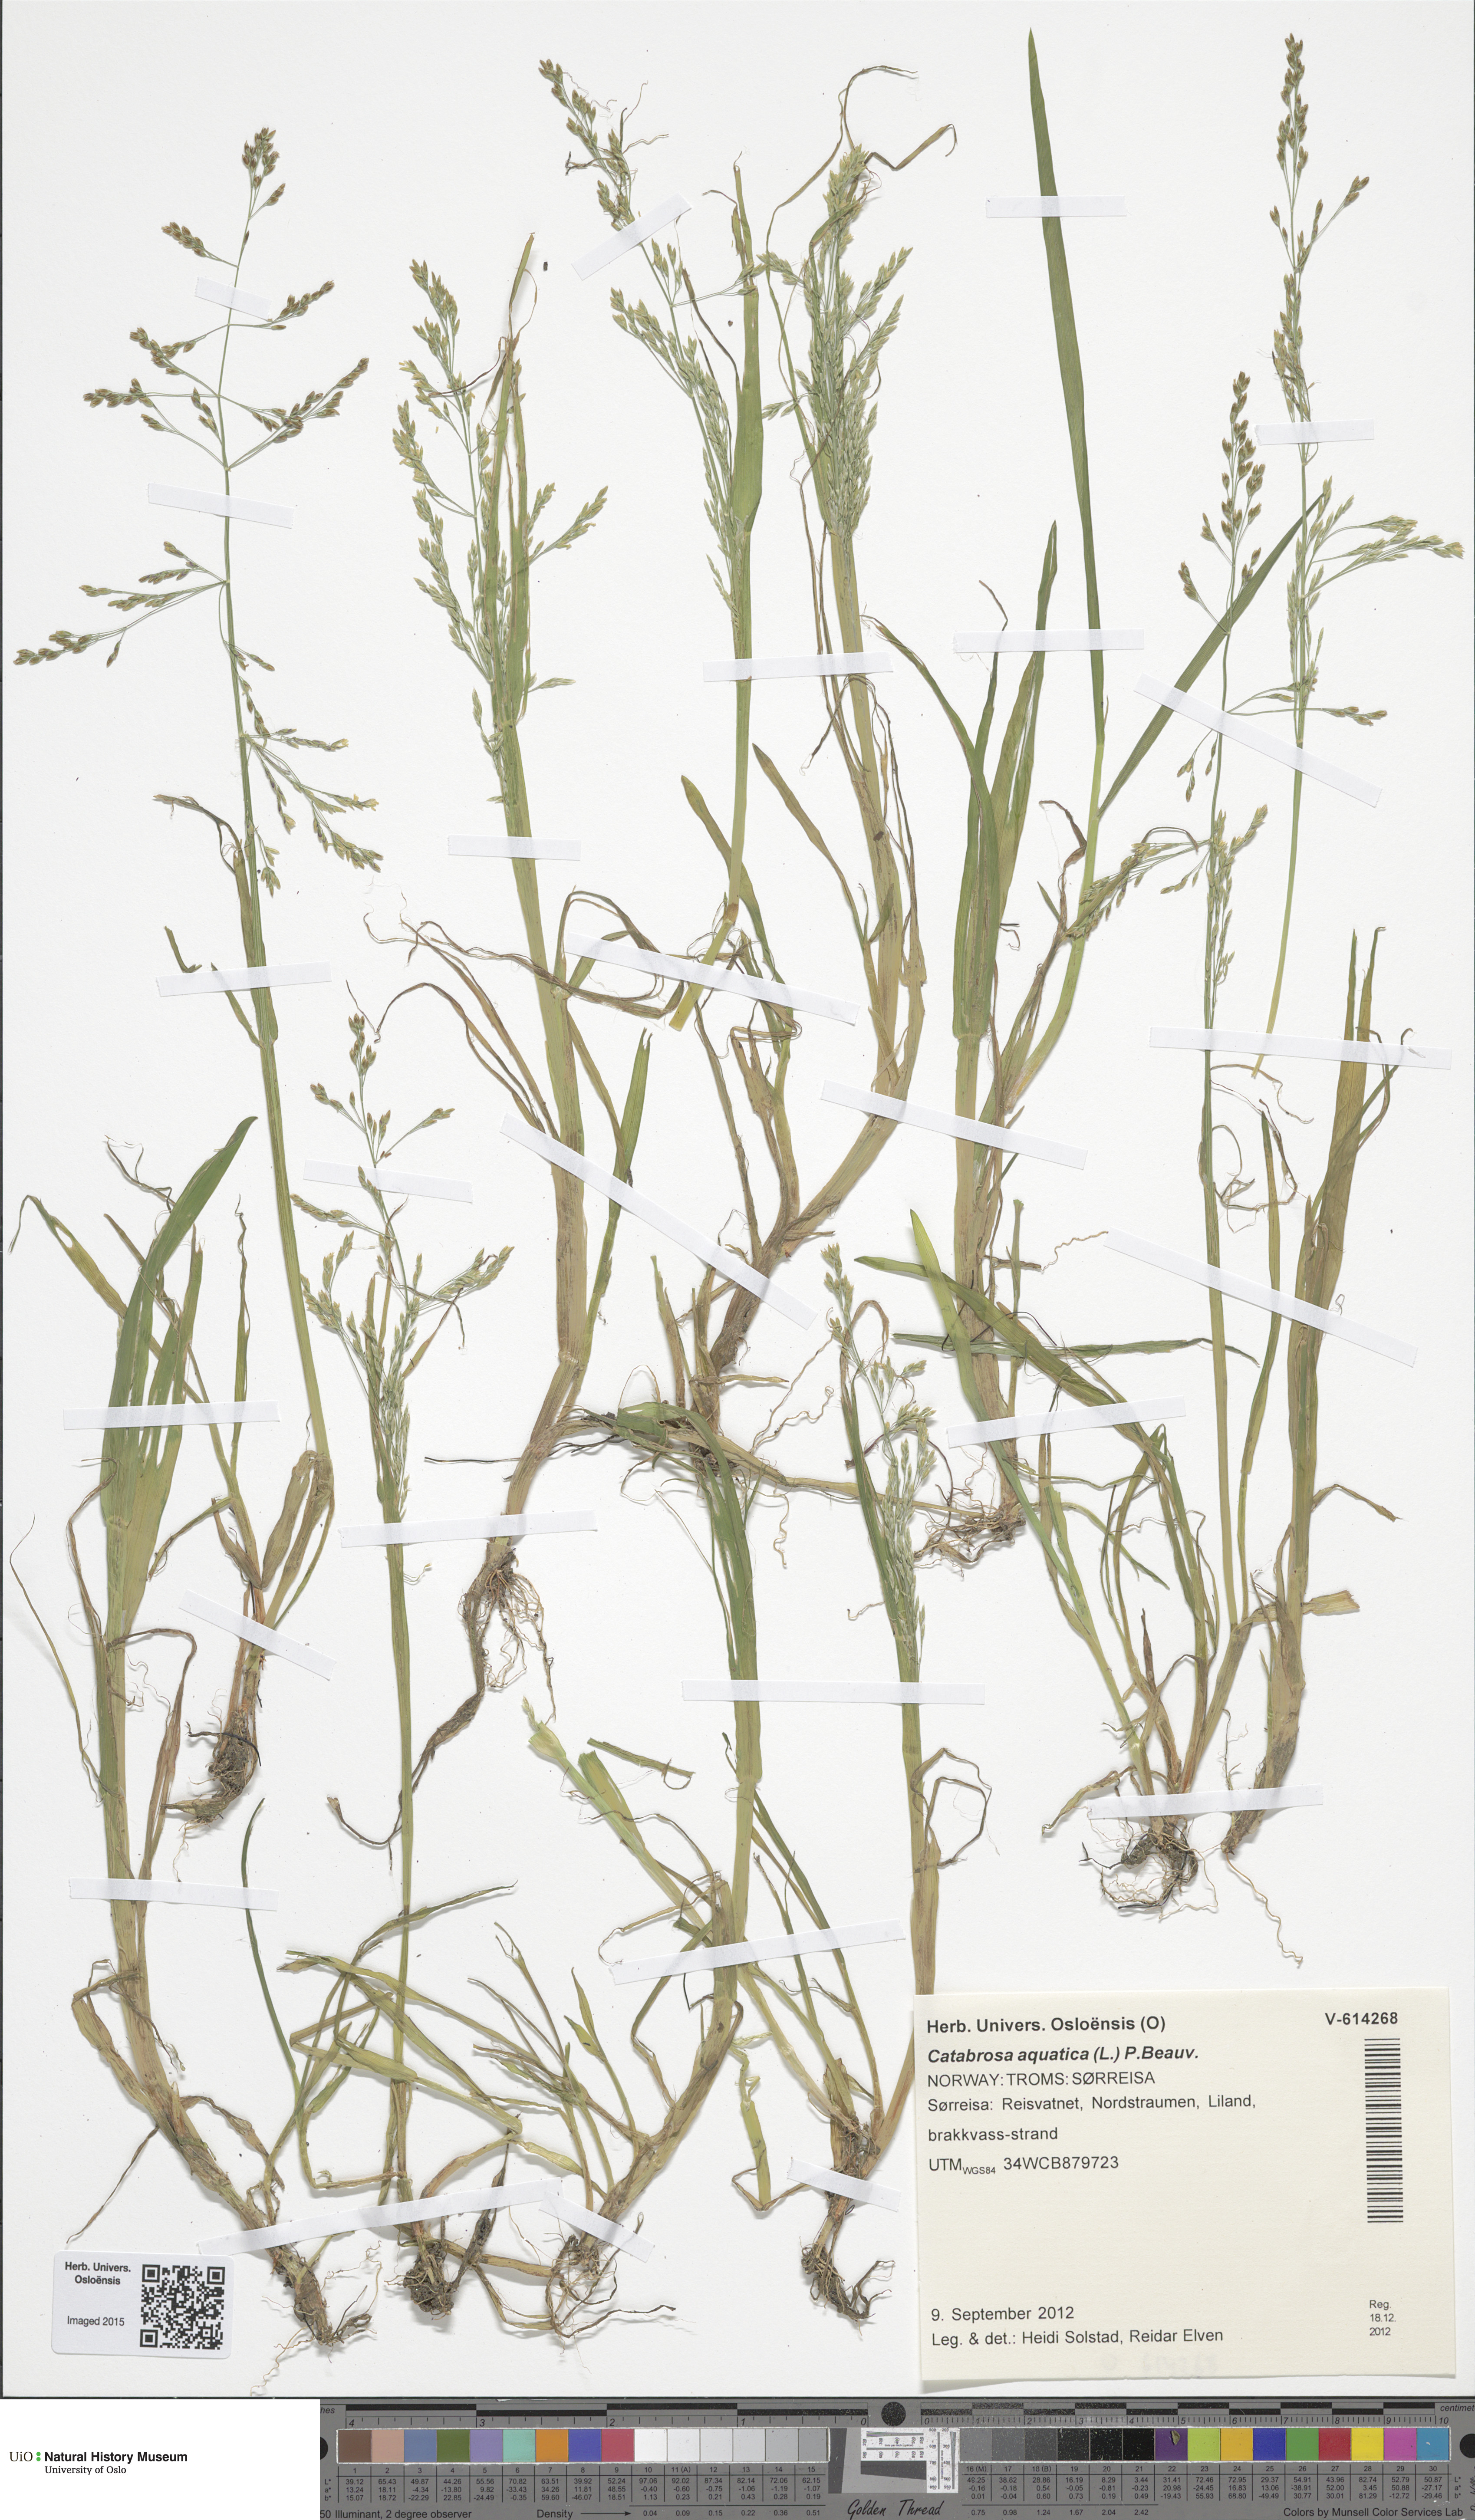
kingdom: Plantae
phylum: Tracheophyta
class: Liliopsida
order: Poales
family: Poaceae
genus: Catabrosa
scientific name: Catabrosa aquatica
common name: Whorl-grass
